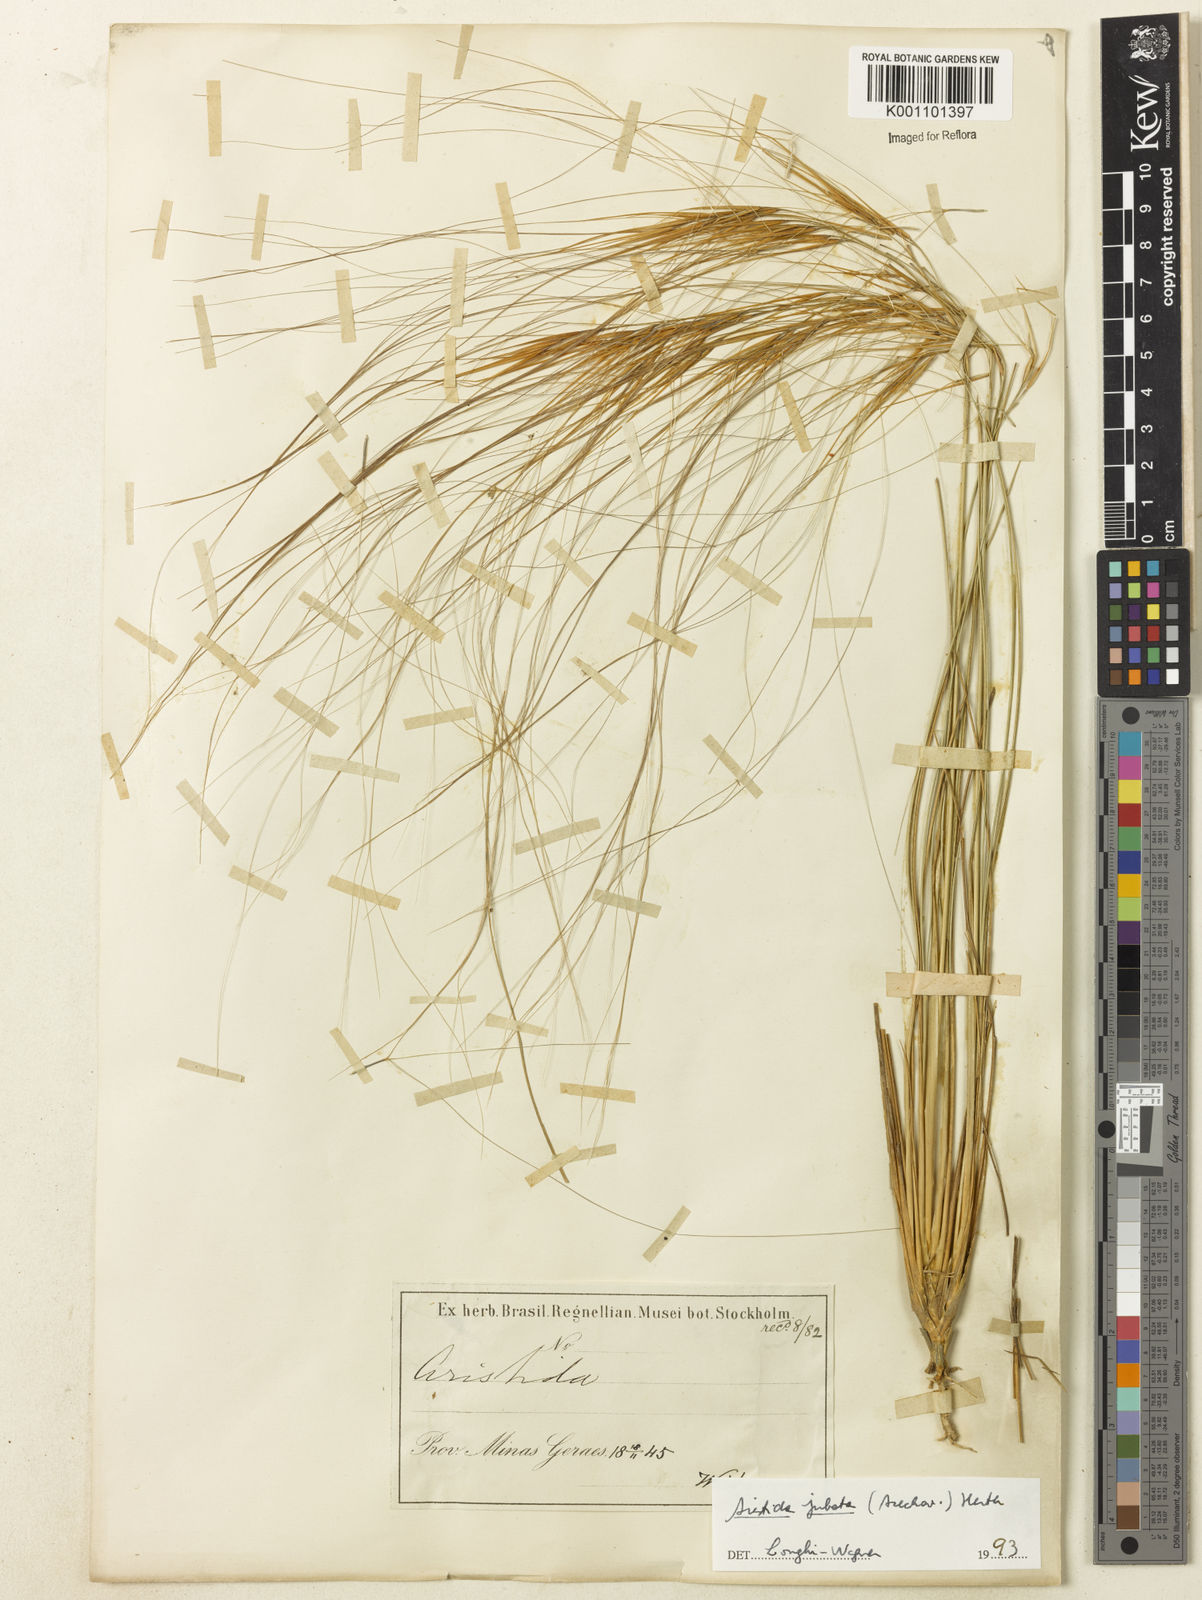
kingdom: Plantae
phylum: Tracheophyta
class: Liliopsida
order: Poales
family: Poaceae
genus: Aristida
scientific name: Aristida jubata
